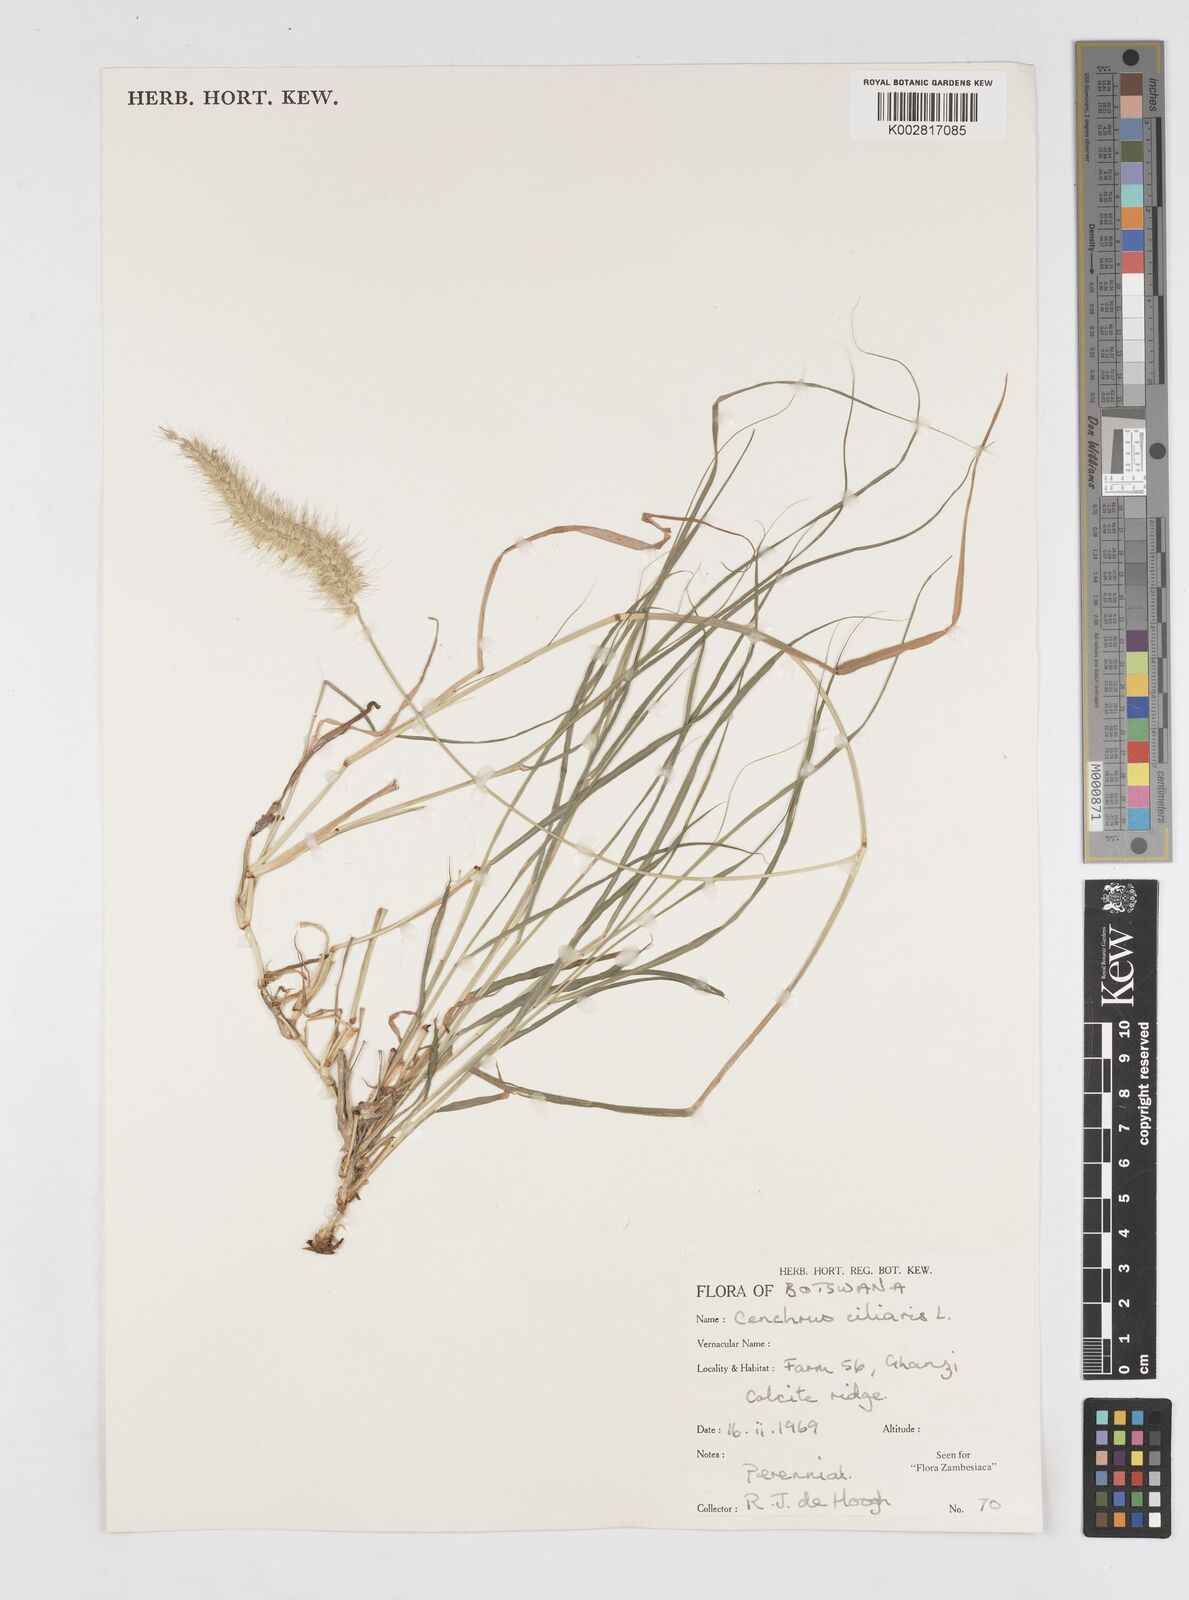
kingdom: Plantae
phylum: Tracheophyta
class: Liliopsida
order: Poales
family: Poaceae
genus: Cenchrus
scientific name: Cenchrus ciliaris
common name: Buffelgrass
